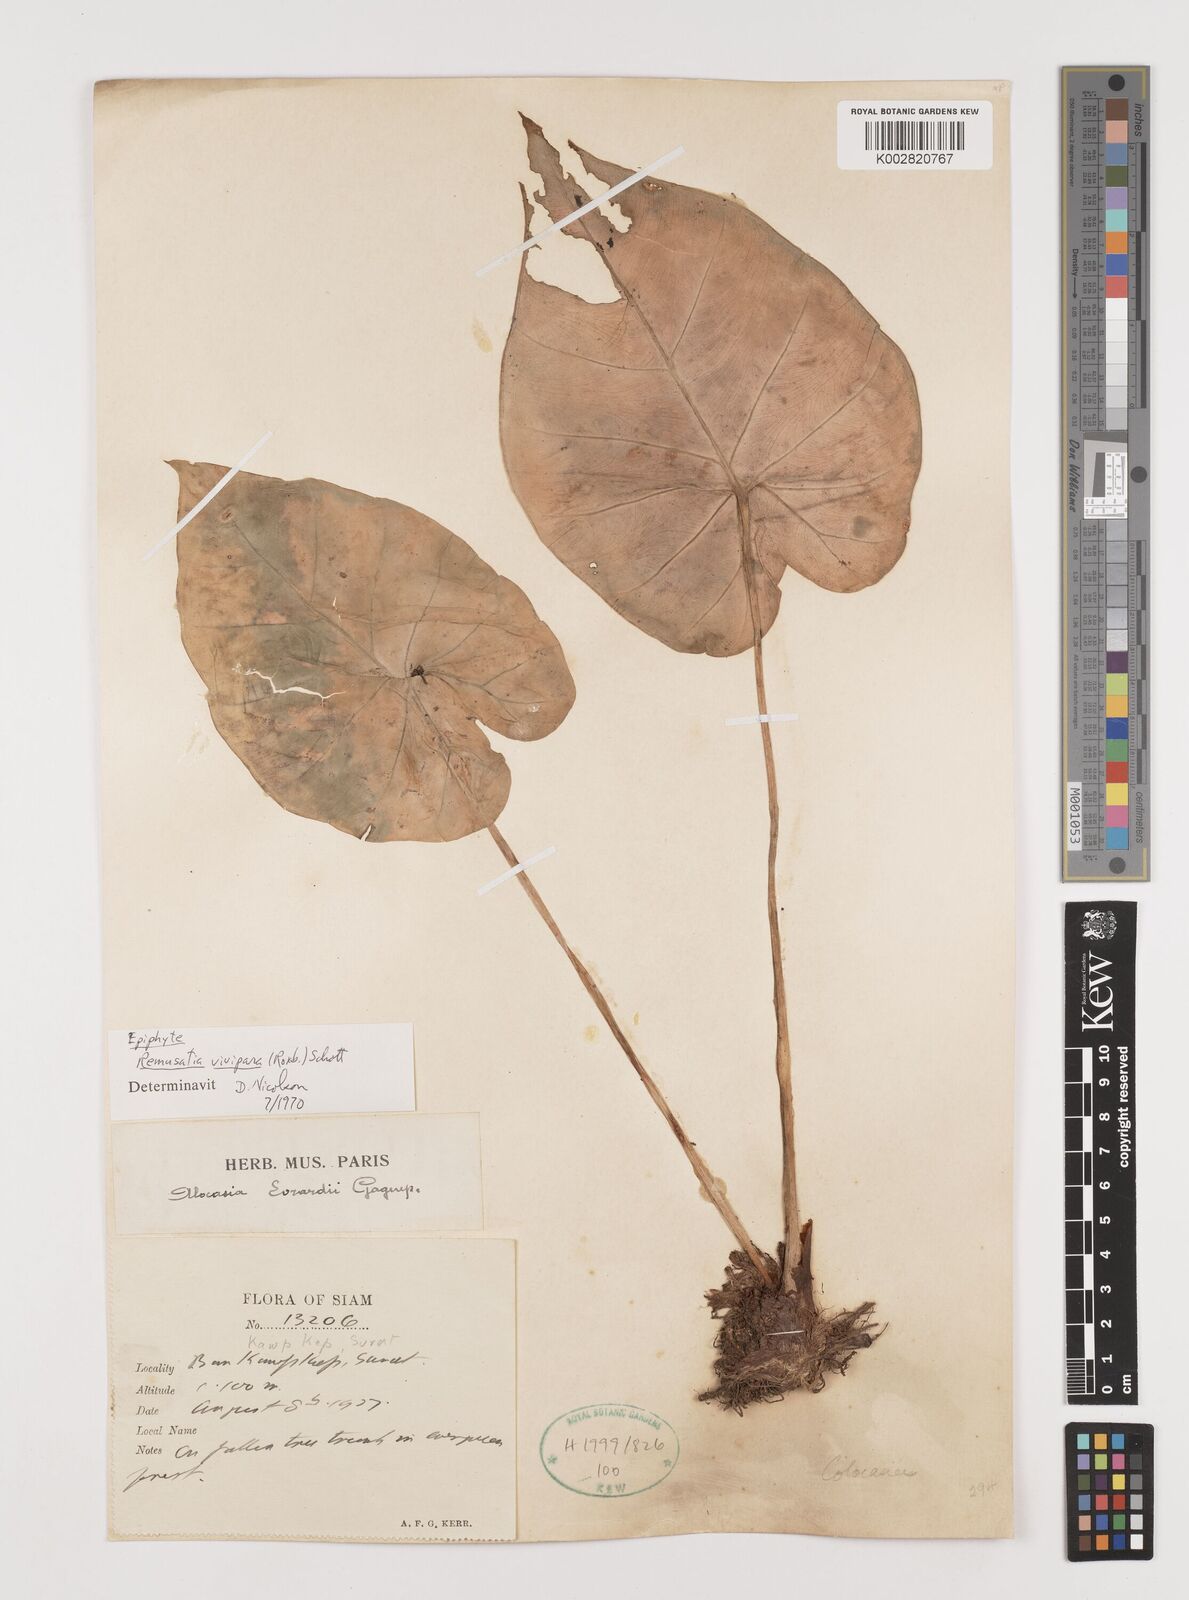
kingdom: Plantae
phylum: Tracheophyta
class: Liliopsida
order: Alismatales
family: Araceae
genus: Remusatia
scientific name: Remusatia vivipara
